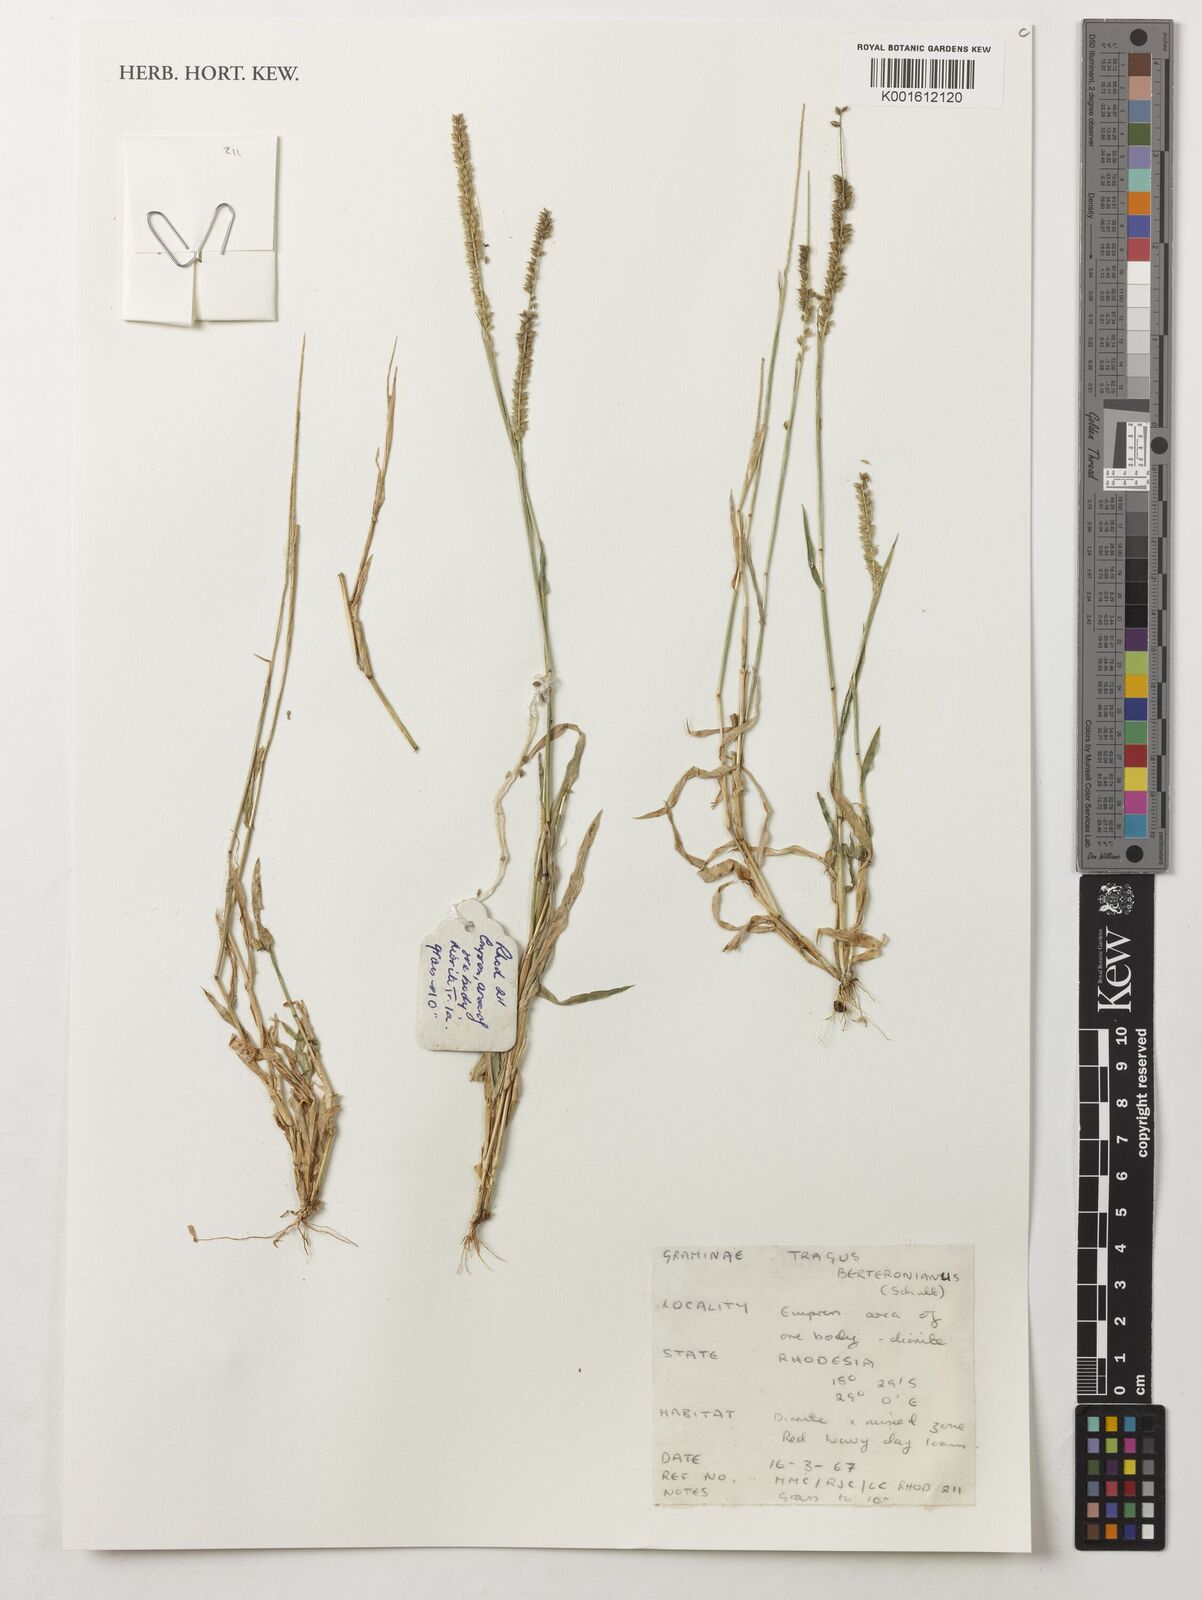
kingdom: Plantae
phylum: Tracheophyta
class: Liliopsida
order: Poales
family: Poaceae
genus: Tragus
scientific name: Tragus berteronianus
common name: African bur-grass
